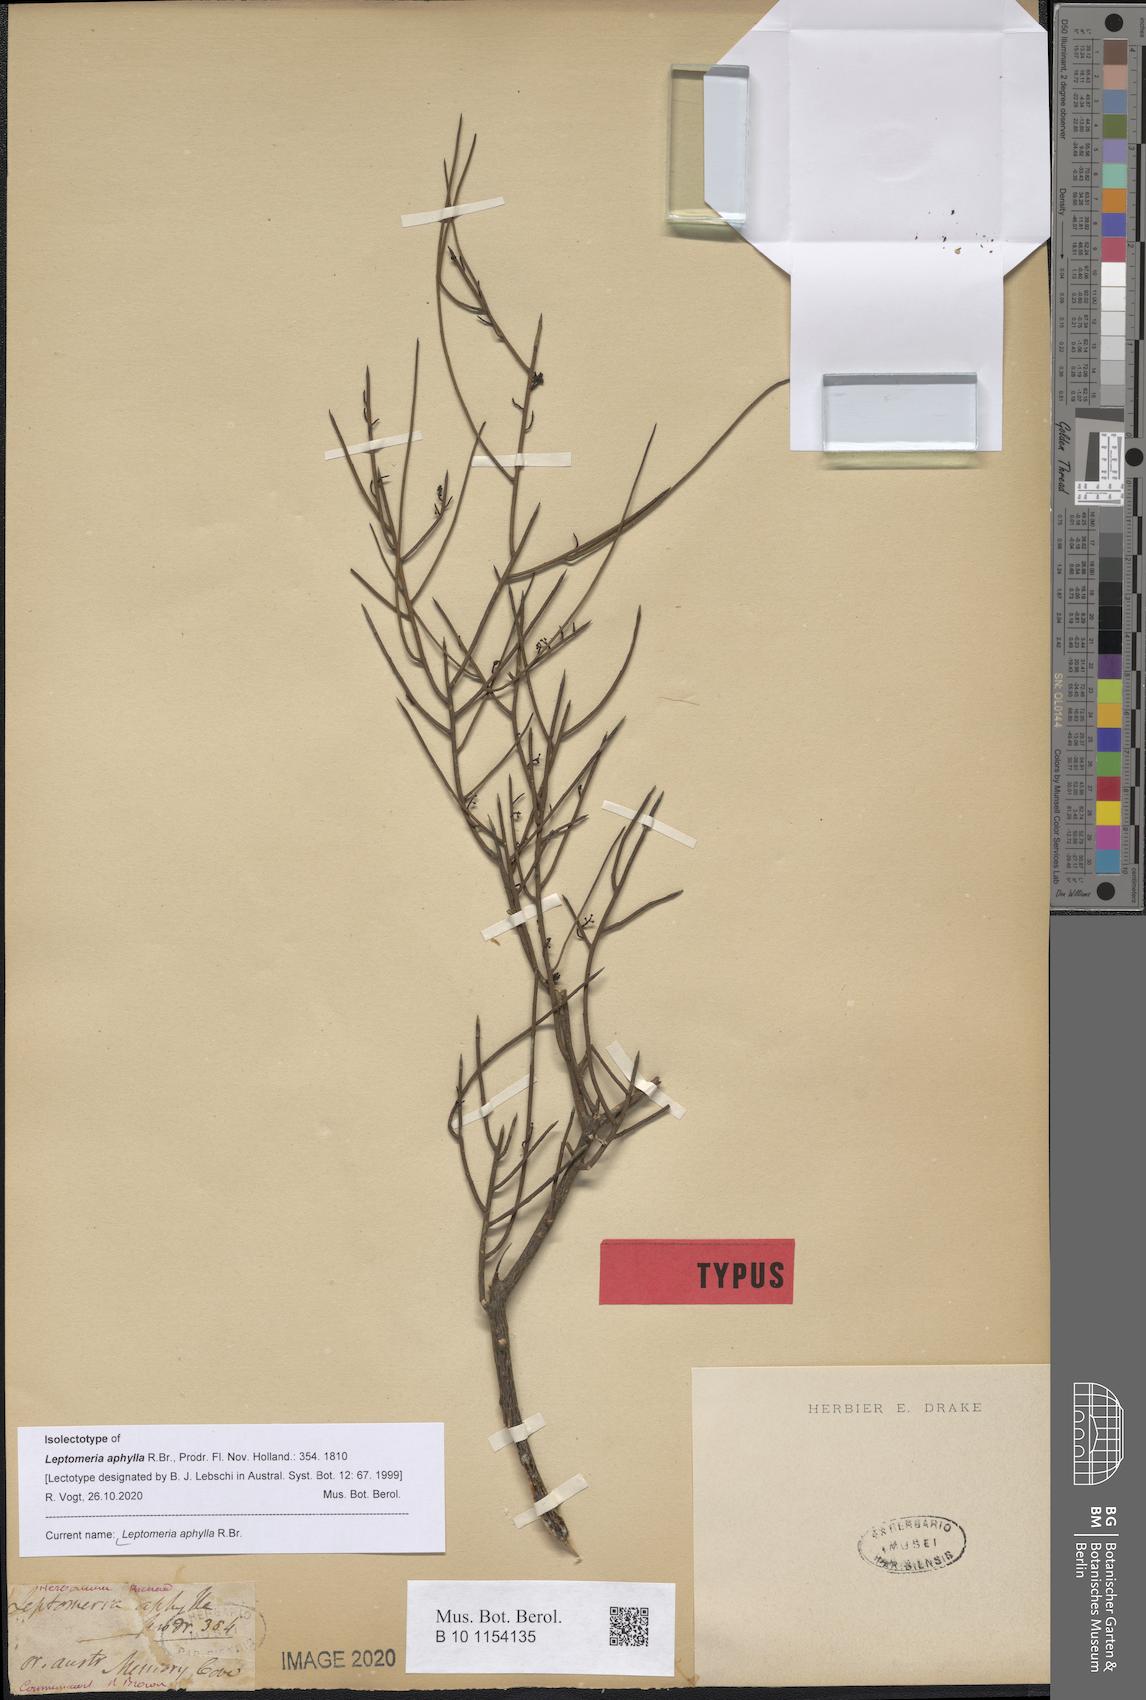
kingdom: Plantae
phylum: Tracheophyta
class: Magnoliopsida
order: Santalales
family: Amphorogynaceae
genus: Leptomeria
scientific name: Leptomeria aphylla
